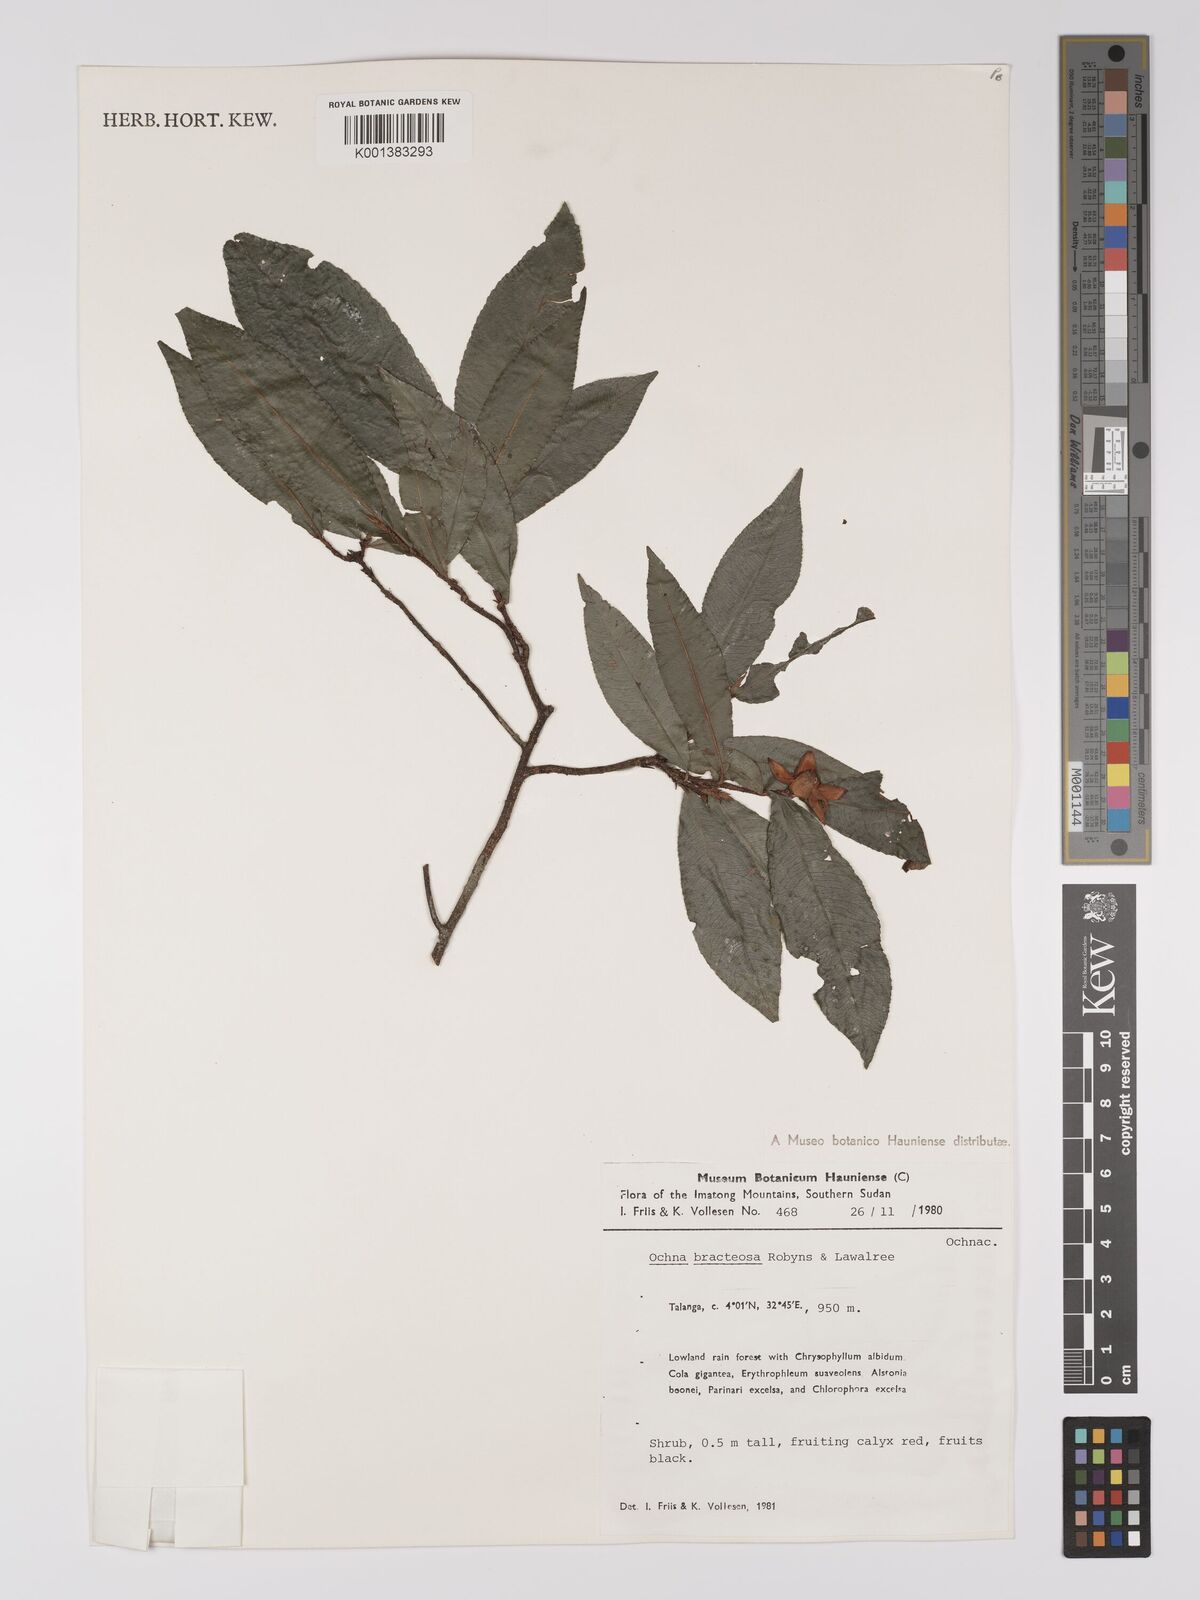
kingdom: Plantae
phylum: Tracheophyta
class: Magnoliopsida
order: Malpighiales
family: Ochnaceae
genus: Ochna
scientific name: Ochna bracteosa
